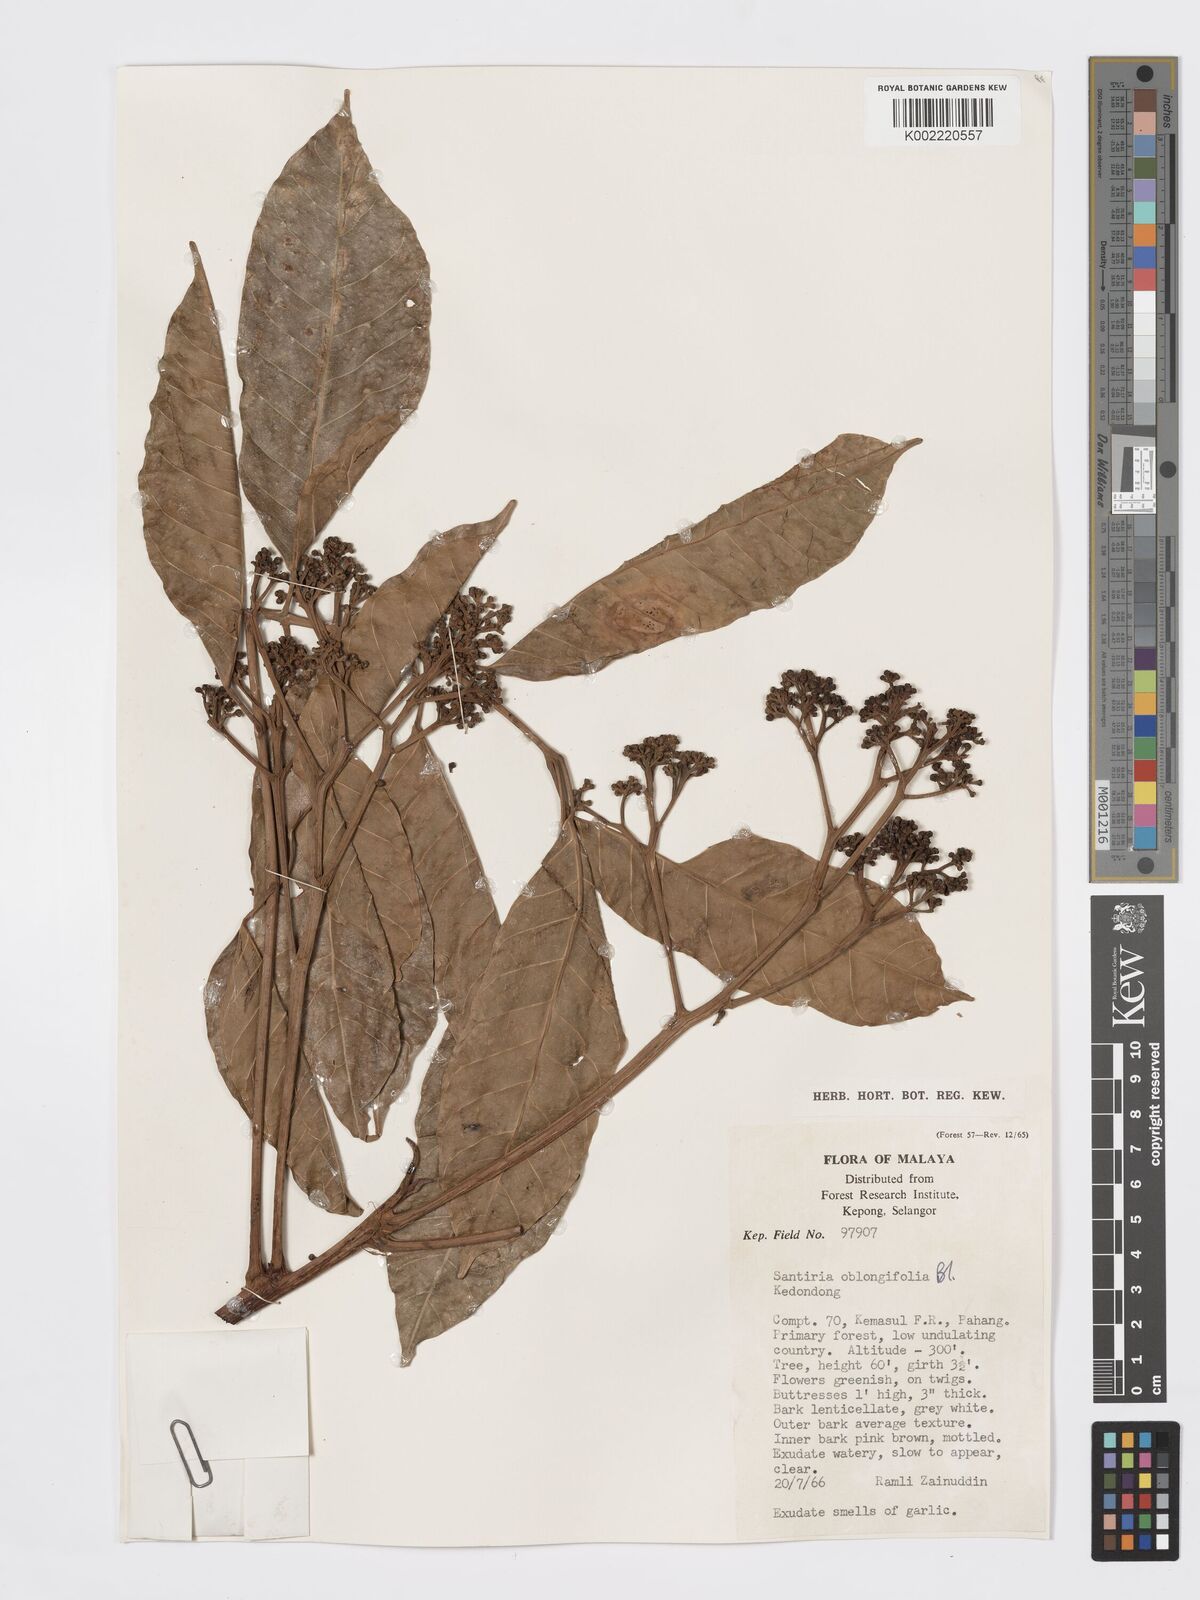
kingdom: Plantae
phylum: Tracheophyta
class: Magnoliopsida
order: Sapindales
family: Burseraceae
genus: Santiria
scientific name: Santiria oblongifolia
